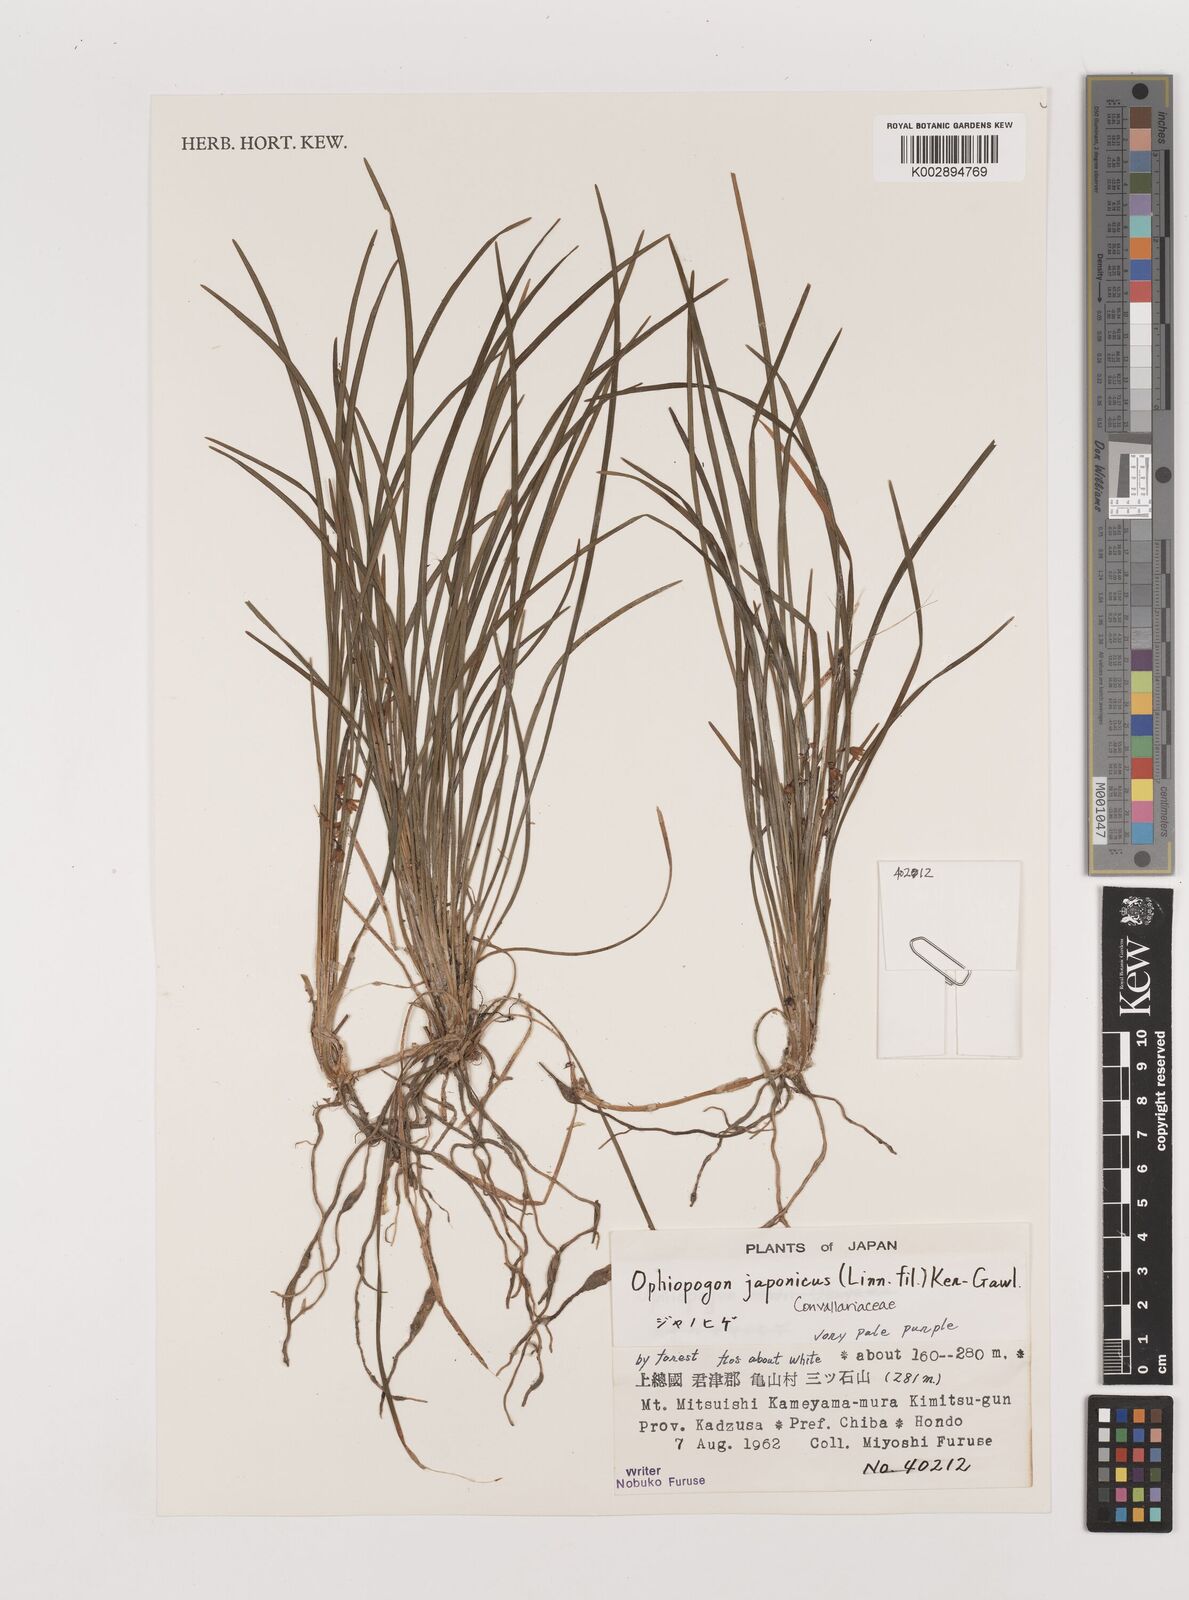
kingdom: Plantae
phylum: Tracheophyta
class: Liliopsida
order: Asparagales
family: Asparagaceae
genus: Ophiopogon
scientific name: Ophiopogon japonicus
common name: Dwarf lilyturf
